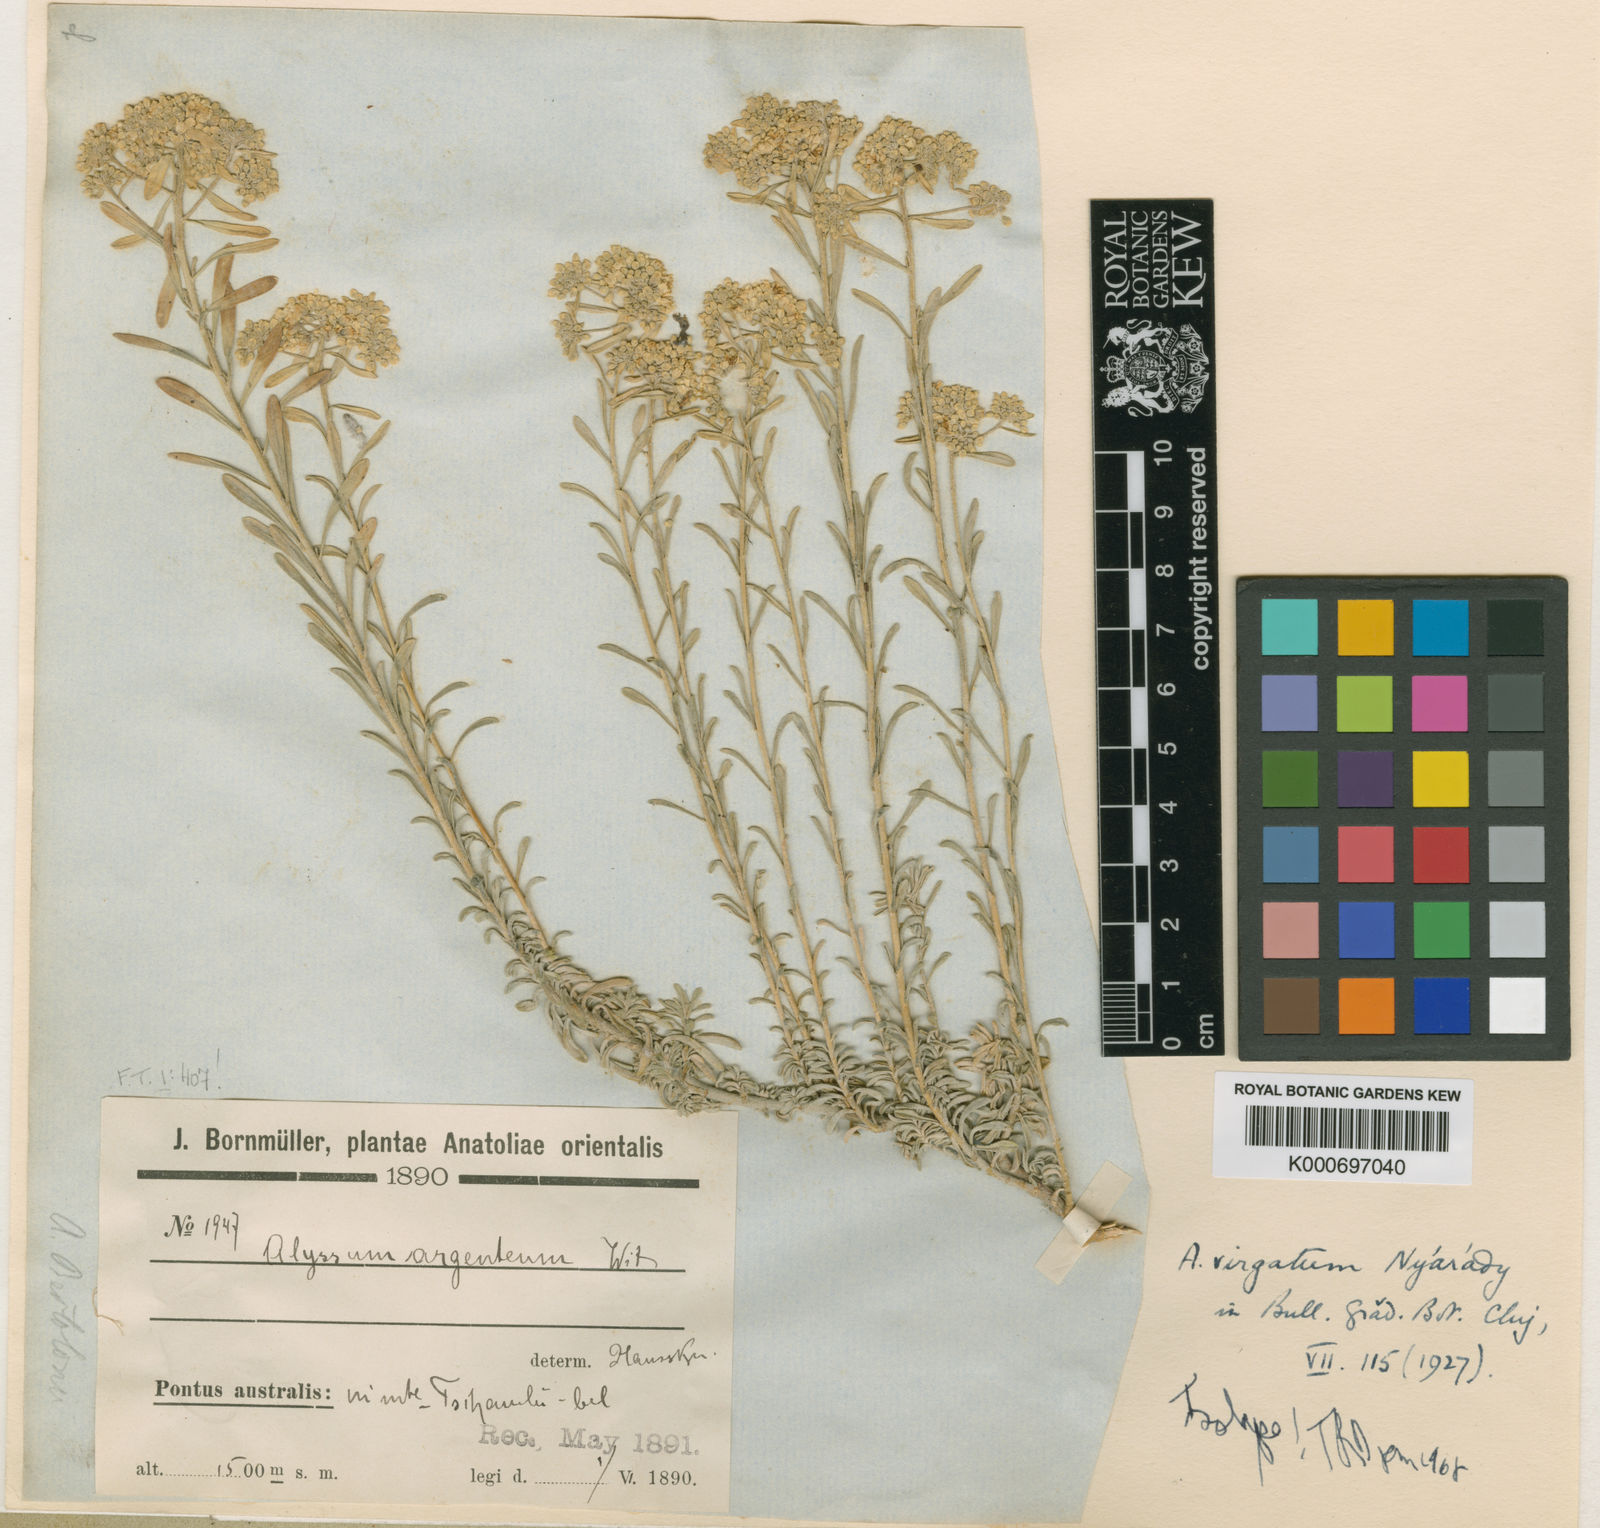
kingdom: Plantae
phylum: Tracheophyta
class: Magnoliopsida
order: Brassicales
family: Brassicaceae
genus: Odontarrhena
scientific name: Odontarrhena virgata
